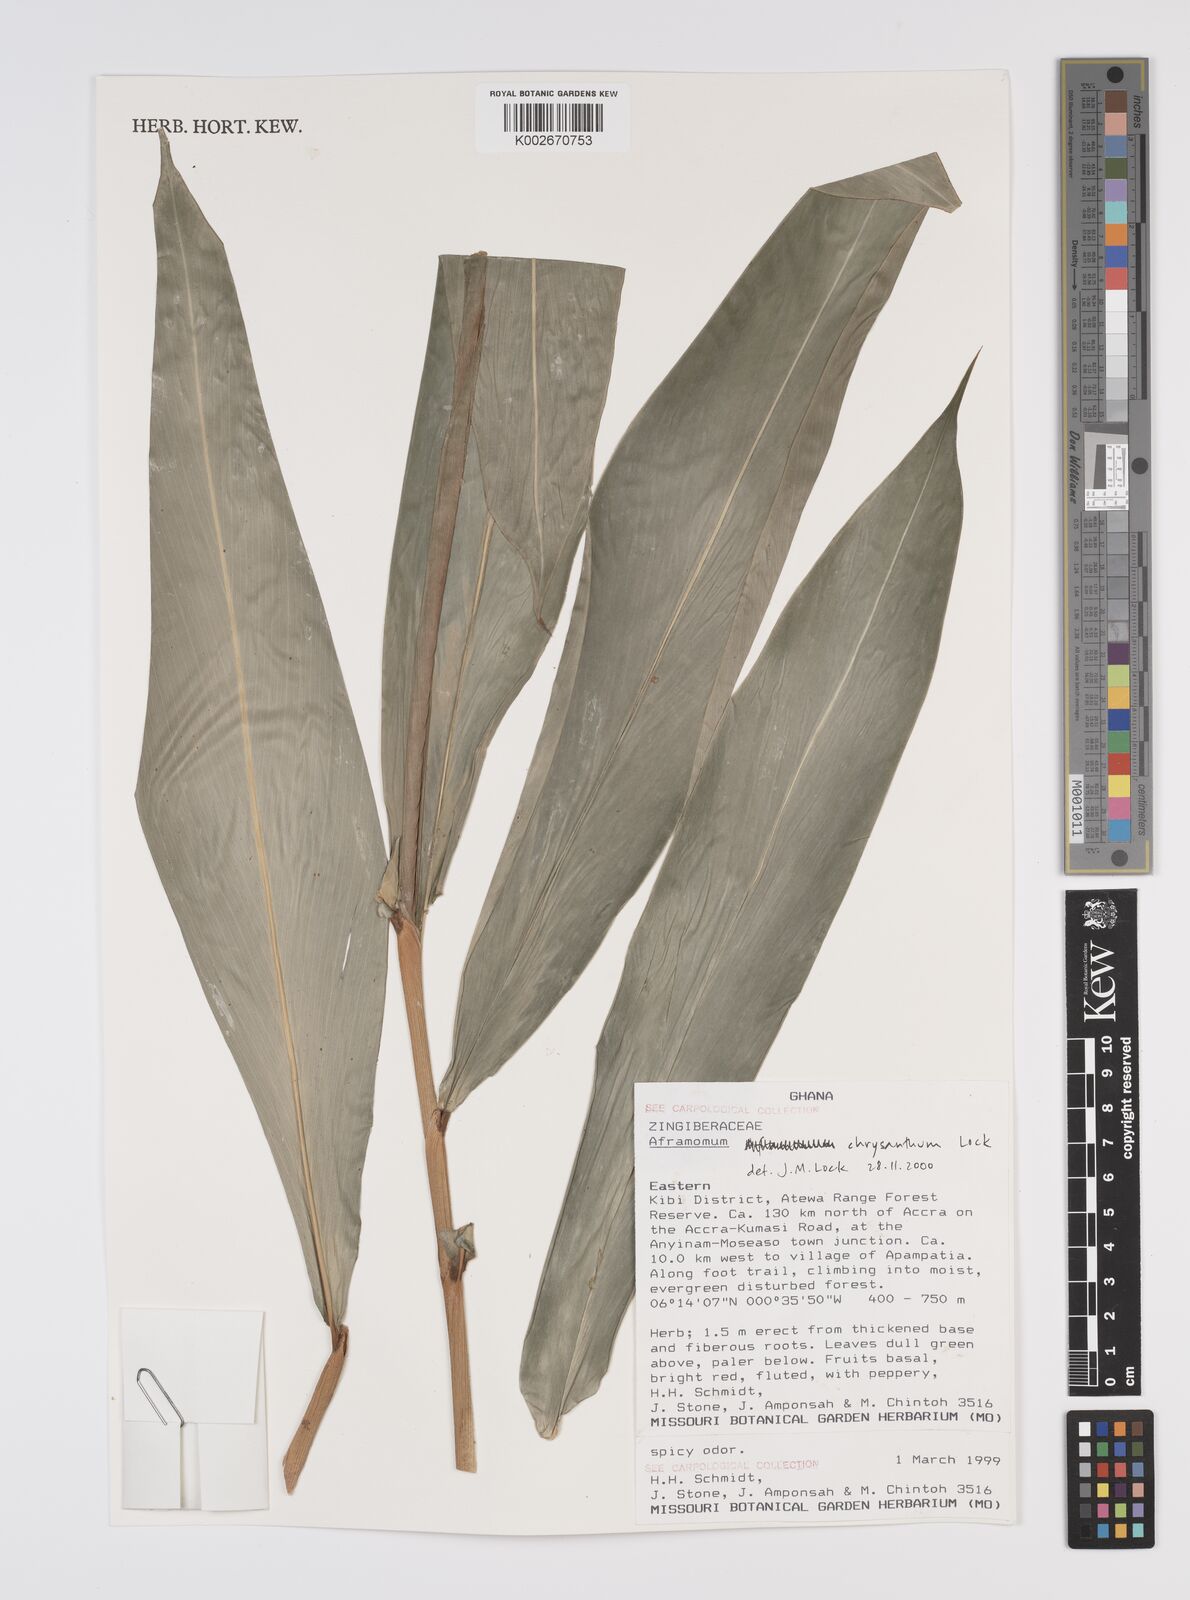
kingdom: Plantae
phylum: Tracheophyta
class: Liliopsida
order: Zingiberales
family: Zingiberaceae
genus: Aframomum
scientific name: Aframomum chrysanthum
